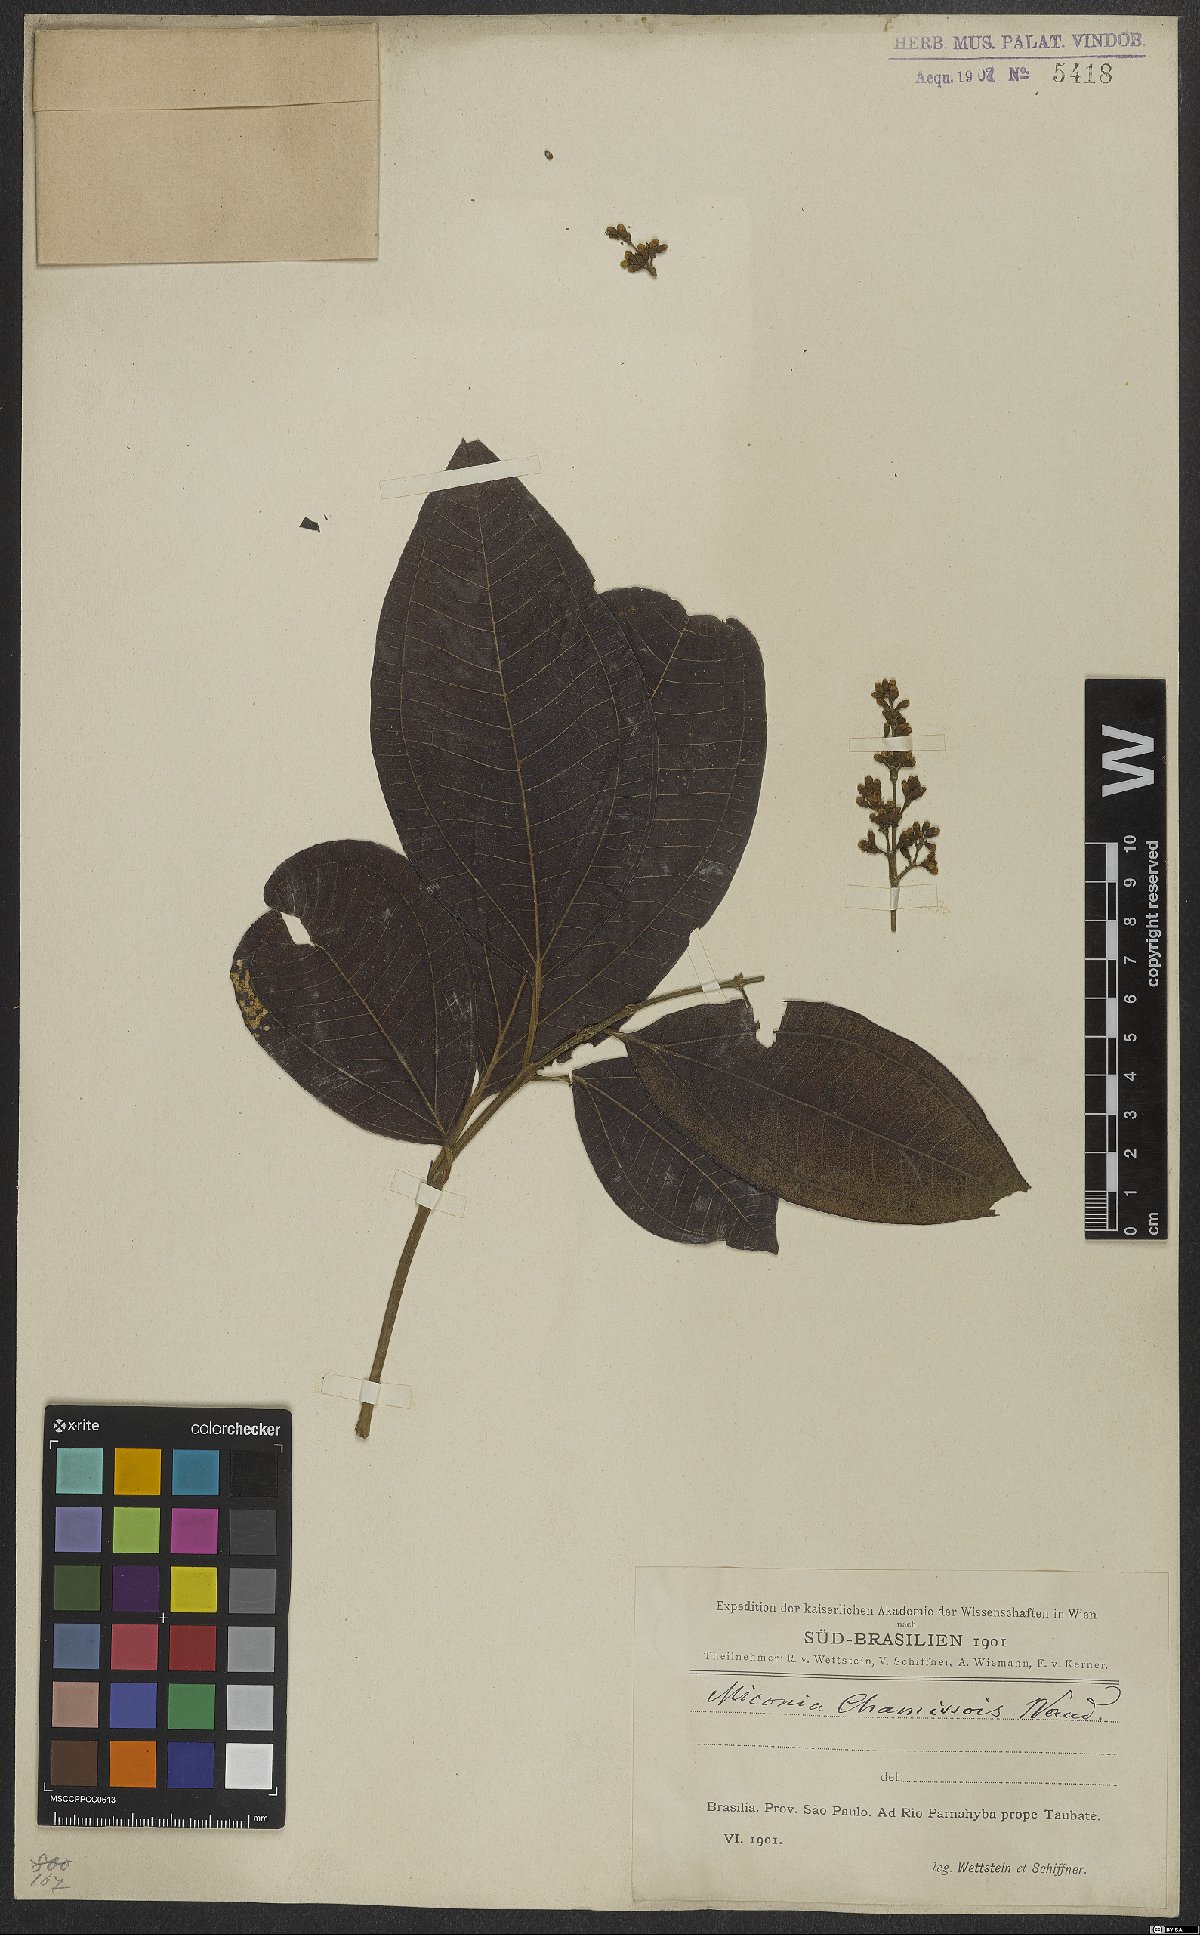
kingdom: Plantae
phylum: Tracheophyta
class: Magnoliopsida
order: Myrtales
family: Melastomataceae
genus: Miconia
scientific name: Miconia chamissois
